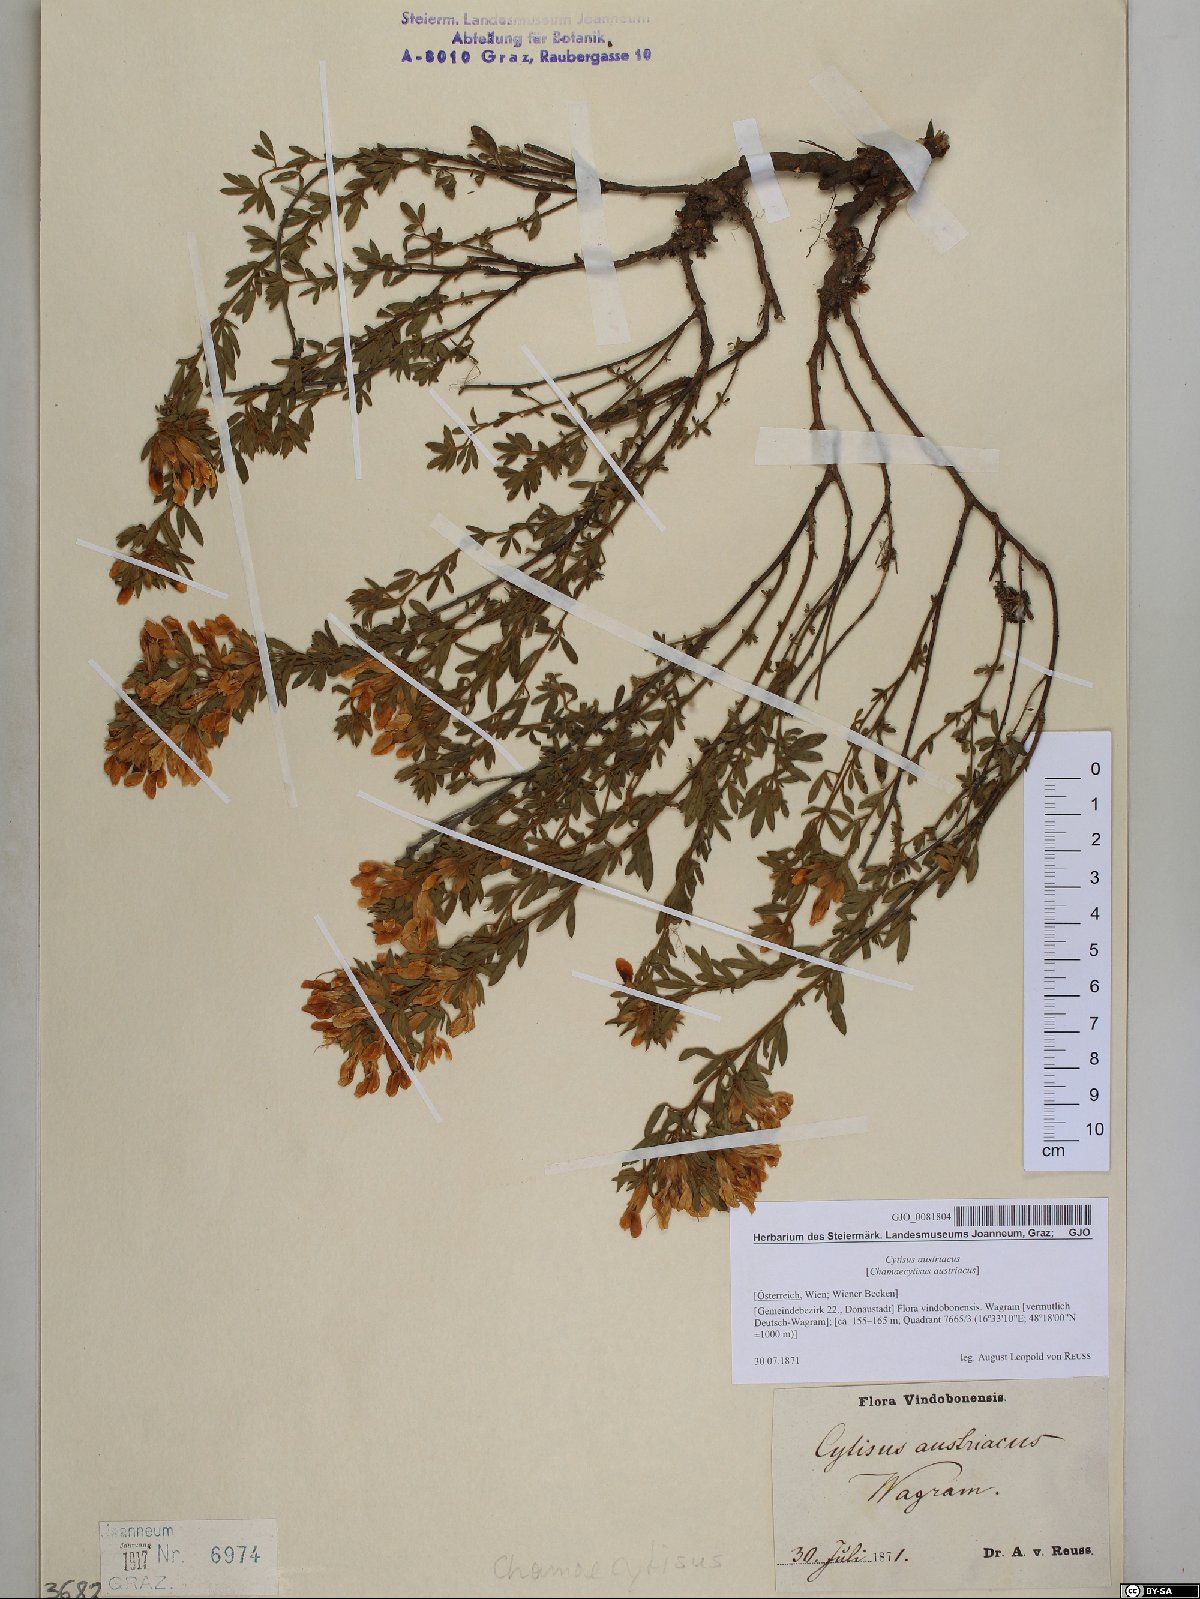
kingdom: Plantae
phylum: Tracheophyta
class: Magnoliopsida
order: Fabales
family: Fabaceae
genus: Chamaecytisus
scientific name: Chamaecytisus austriacus
